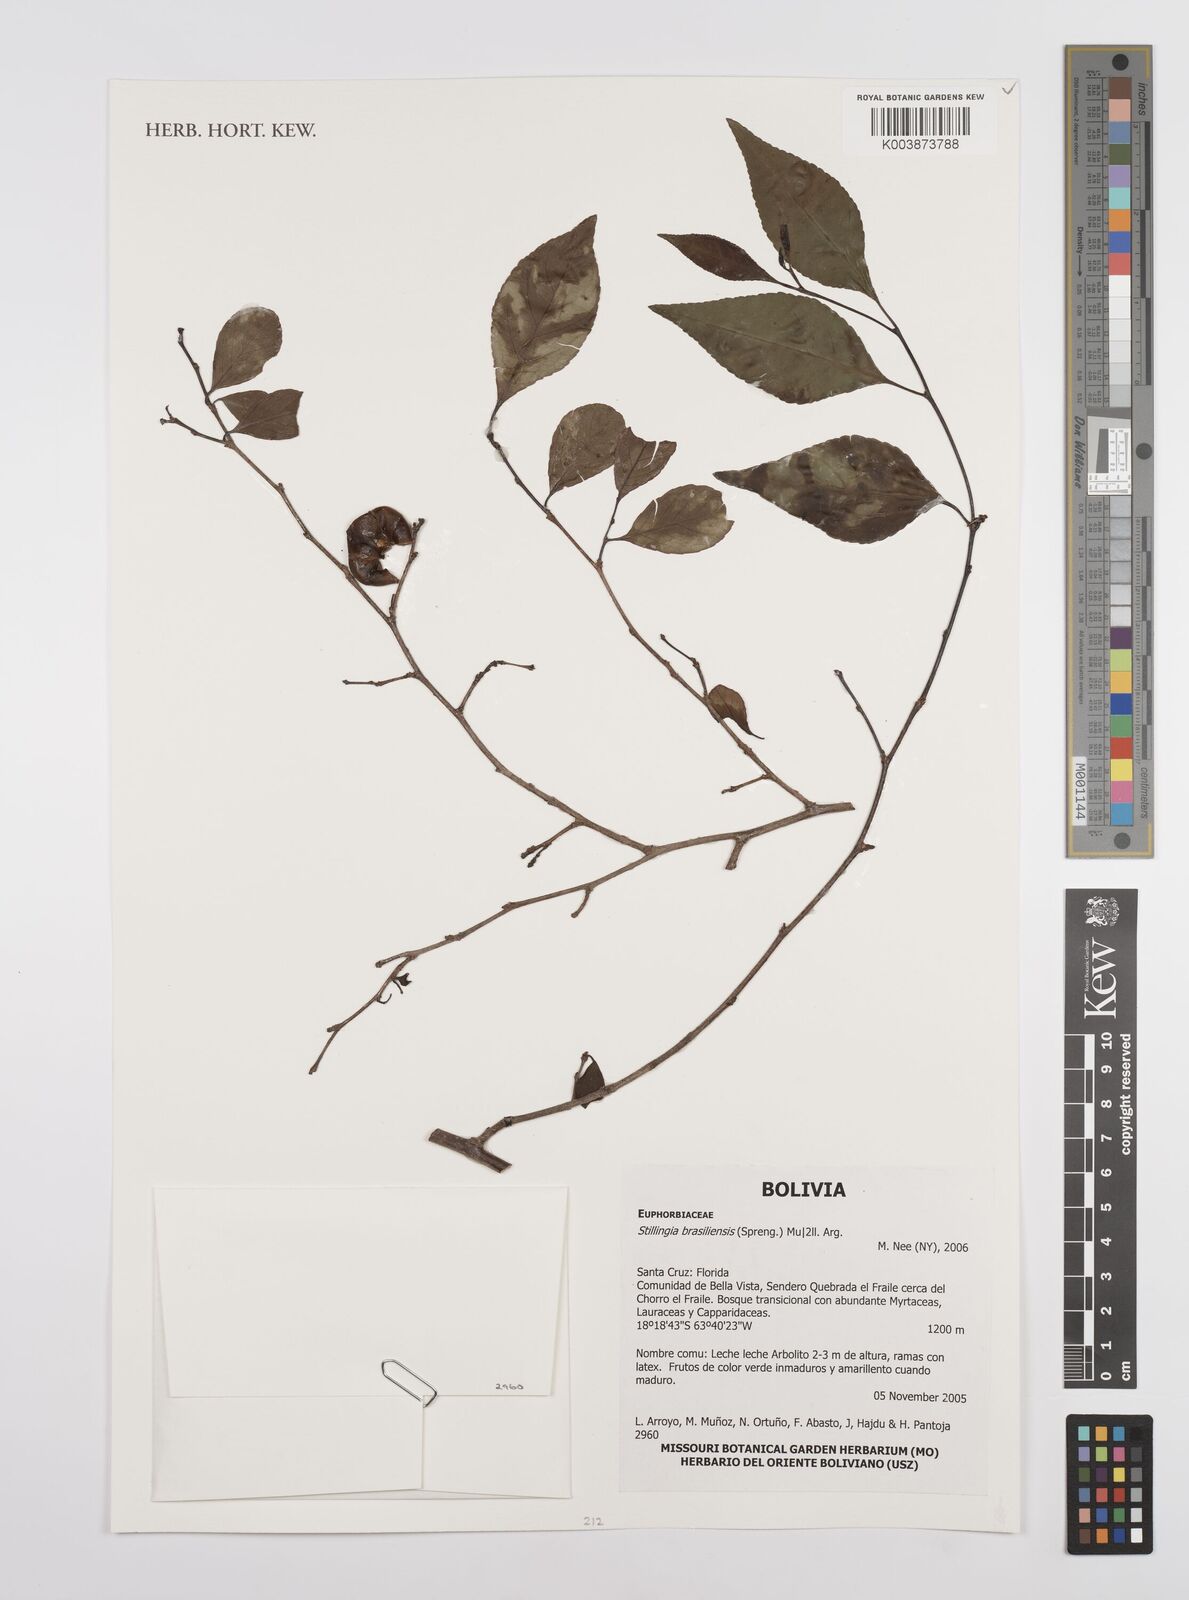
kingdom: Plantae
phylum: Tracheophyta
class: Magnoliopsida
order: Malpighiales
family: Euphorbiaceae
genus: Stillingia
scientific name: Stillingia
